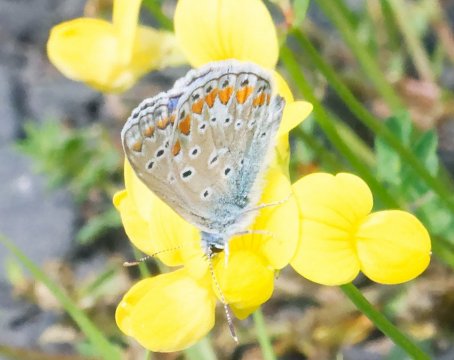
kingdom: Animalia
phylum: Arthropoda
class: Insecta
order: Lepidoptera
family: Lycaenidae
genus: Polyommatus
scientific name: Polyommatus icarus
